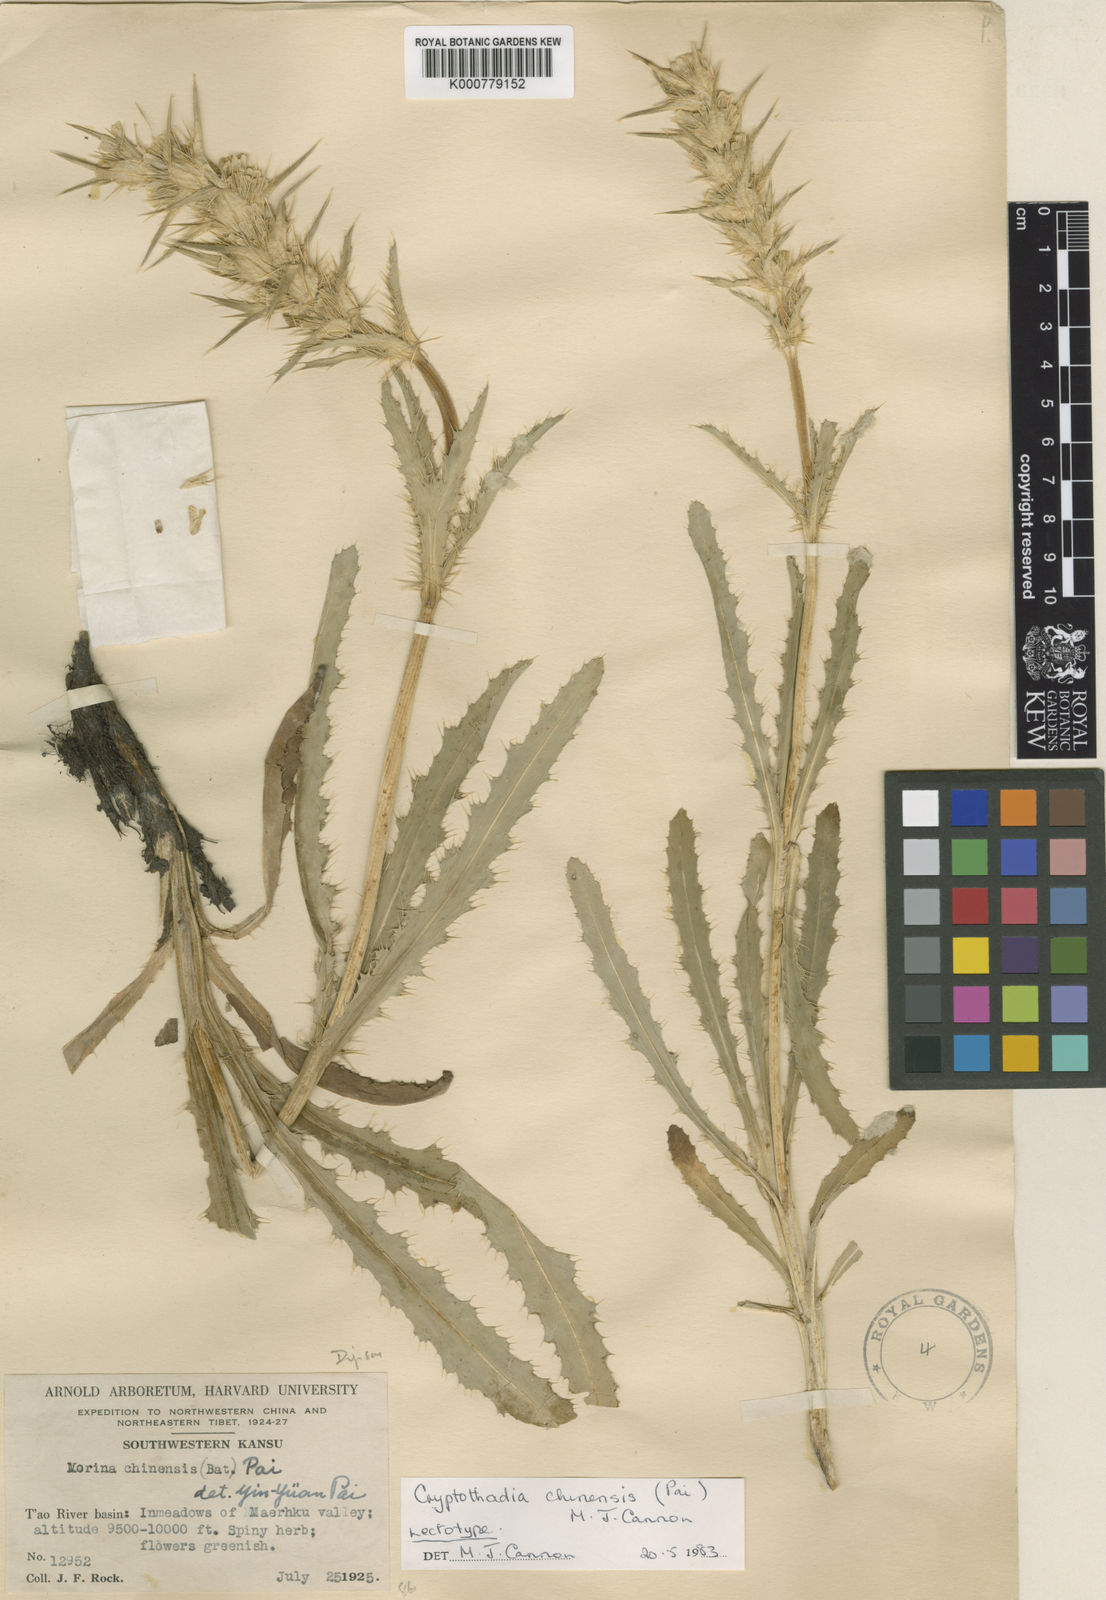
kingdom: Plantae
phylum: Tracheophyta
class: Magnoliopsida
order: Dipsacales
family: Caprifoliaceae
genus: Cryptothladia
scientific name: Cryptothladia chinensis
